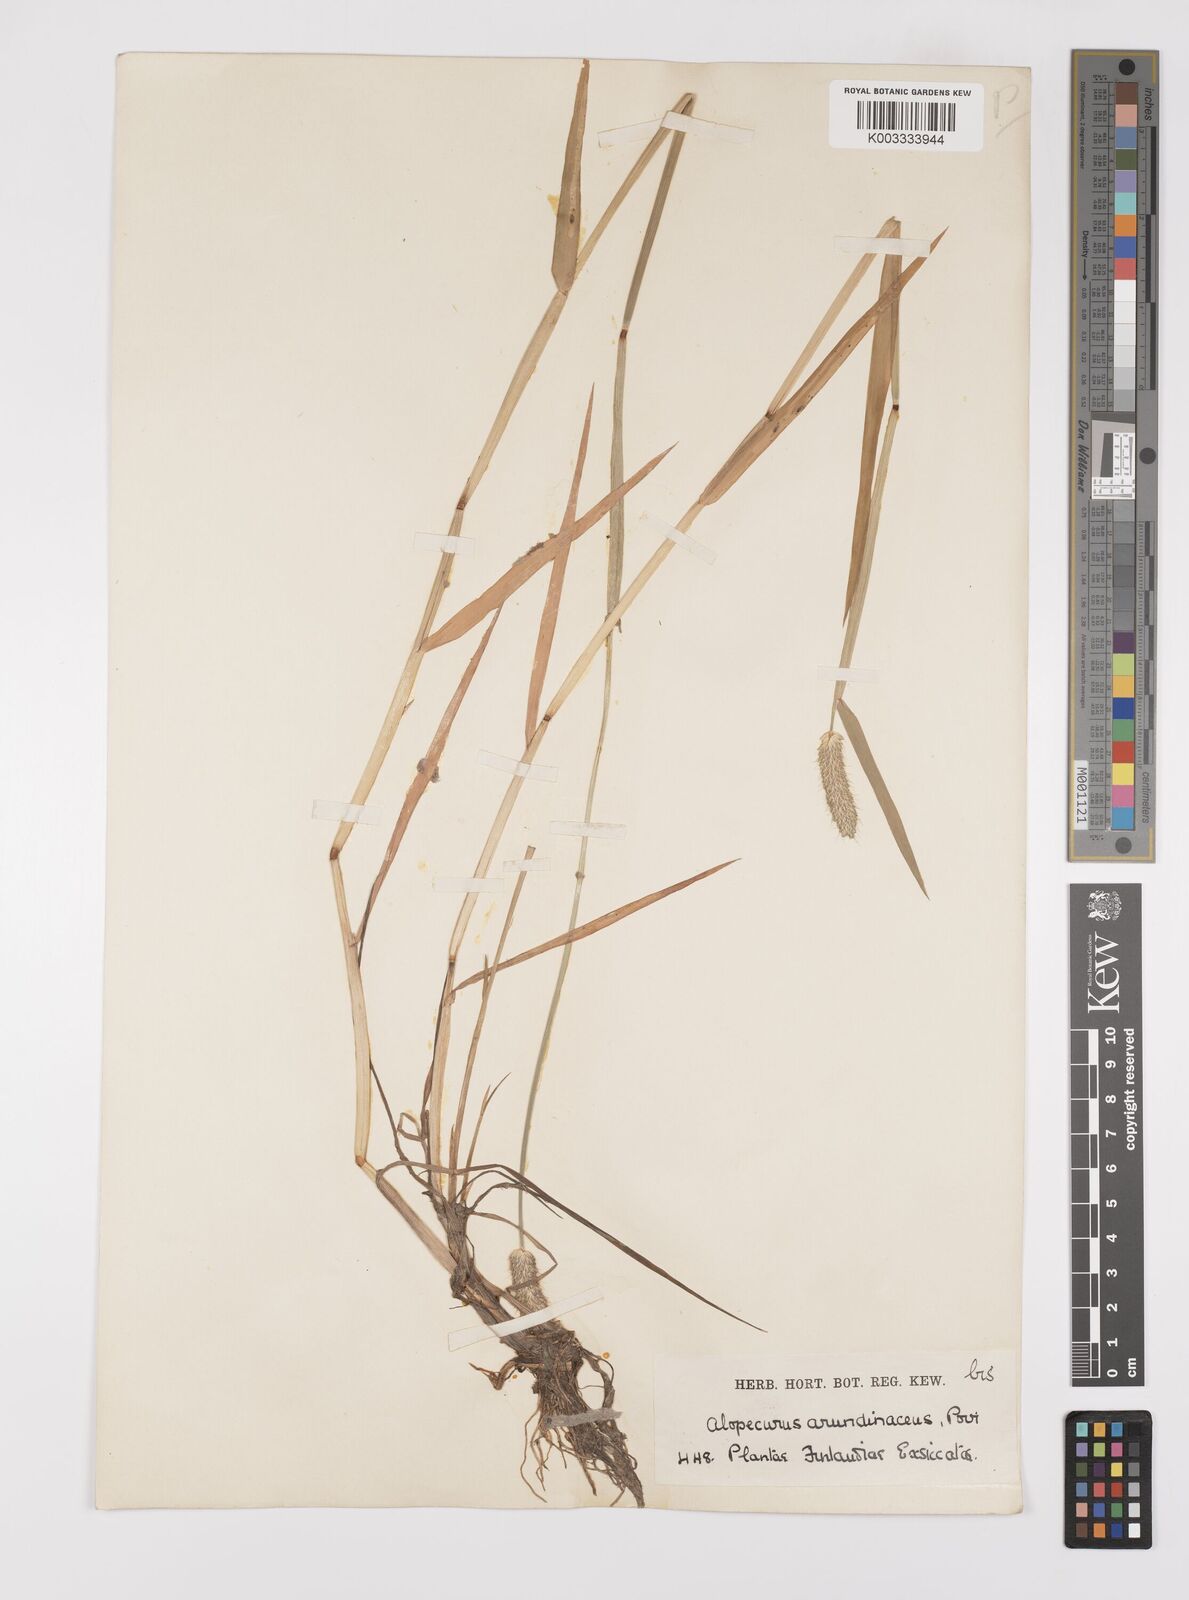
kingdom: Plantae
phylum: Tracheophyta
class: Liliopsida
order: Poales
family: Poaceae
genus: Alopecurus
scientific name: Alopecurus arundinaceus
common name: Creeping meadow foxtail
